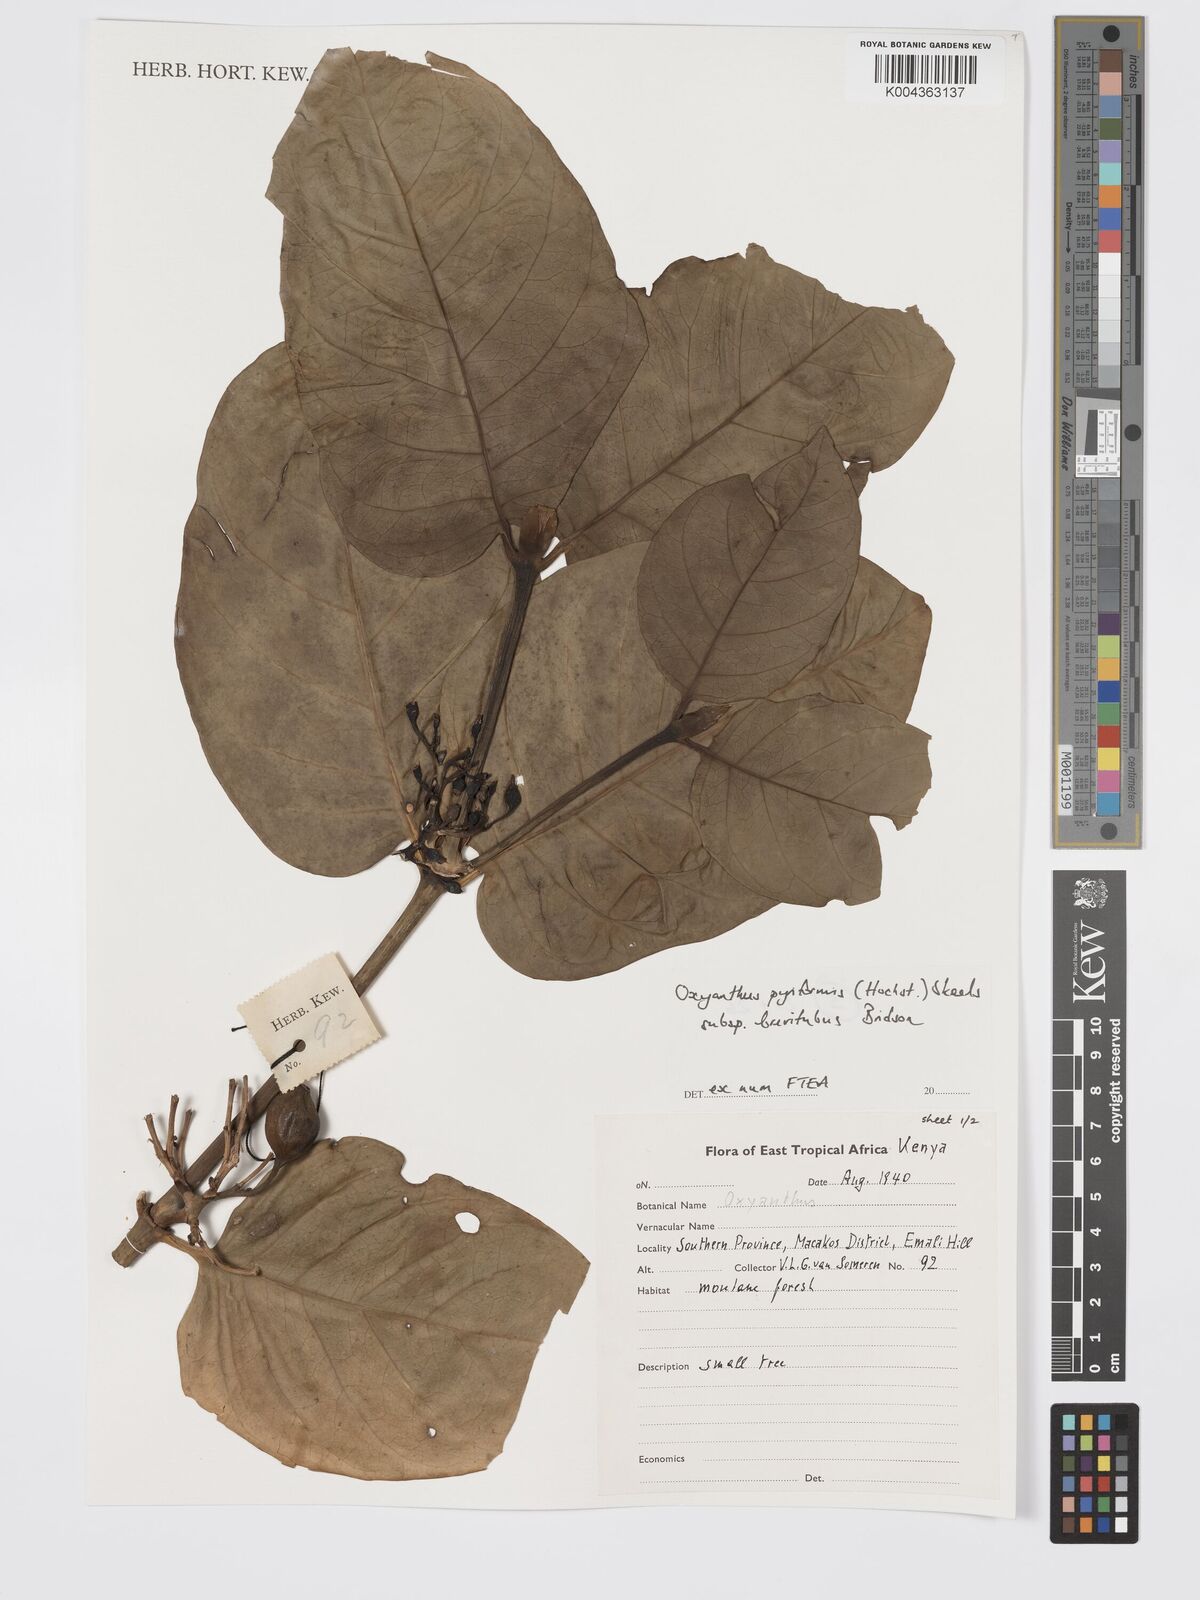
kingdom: Plantae
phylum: Tracheophyta
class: Magnoliopsida
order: Gentianales
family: Rubiaceae
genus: Oxyanthus
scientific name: Oxyanthus pyriformis
